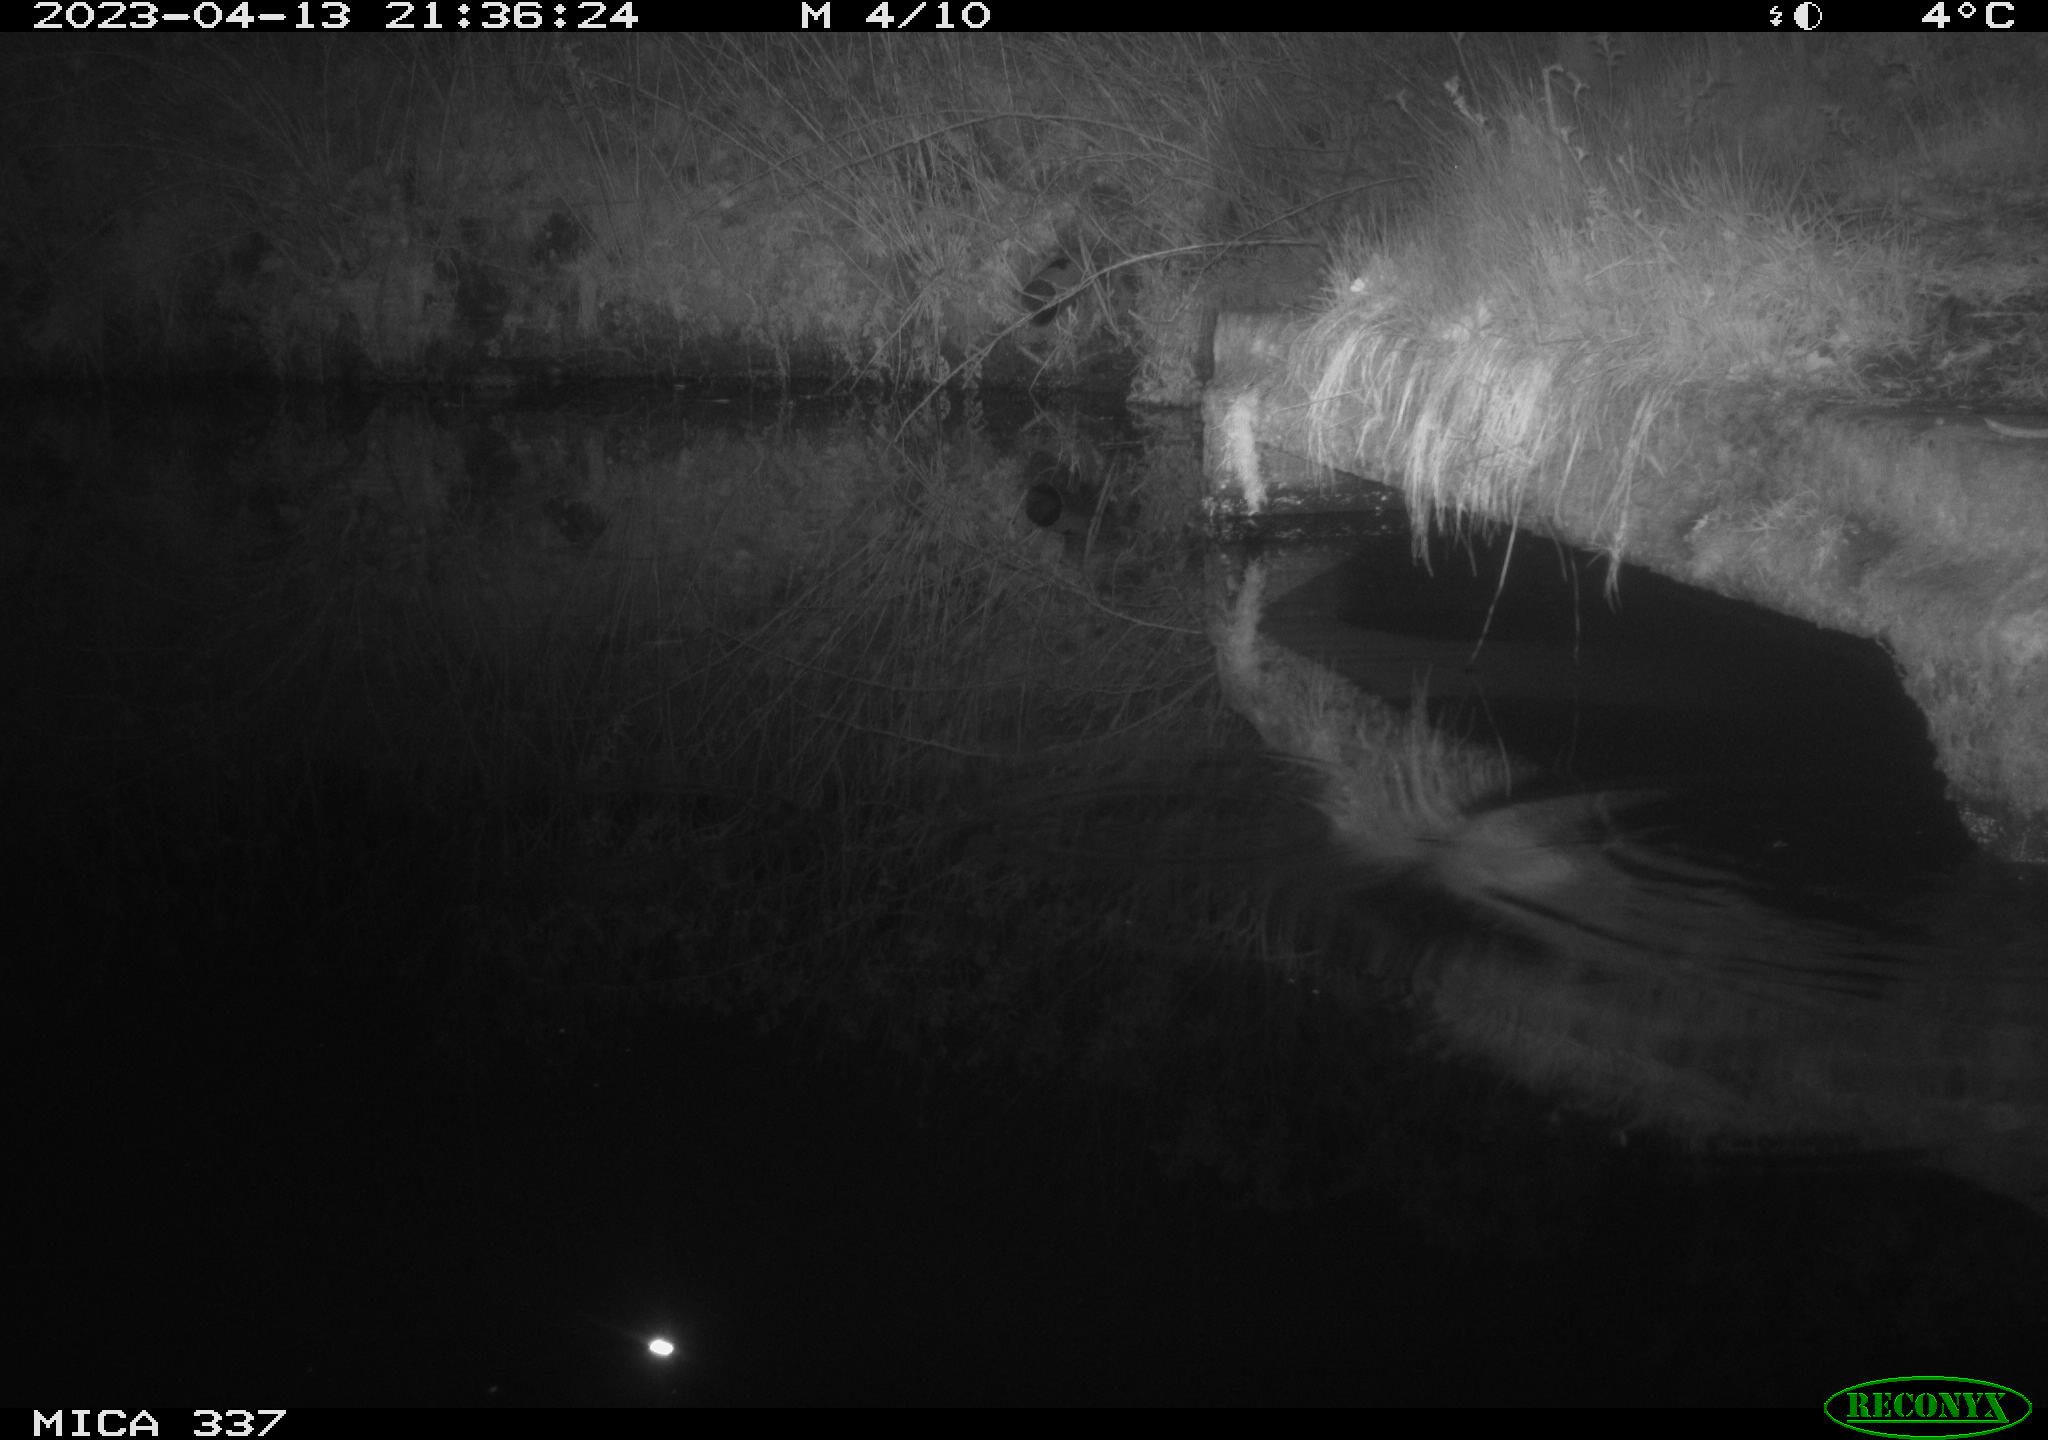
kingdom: Animalia
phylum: Chordata
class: Mammalia
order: Rodentia
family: Muridae
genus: Rattus
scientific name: Rattus norvegicus
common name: Brown rat
